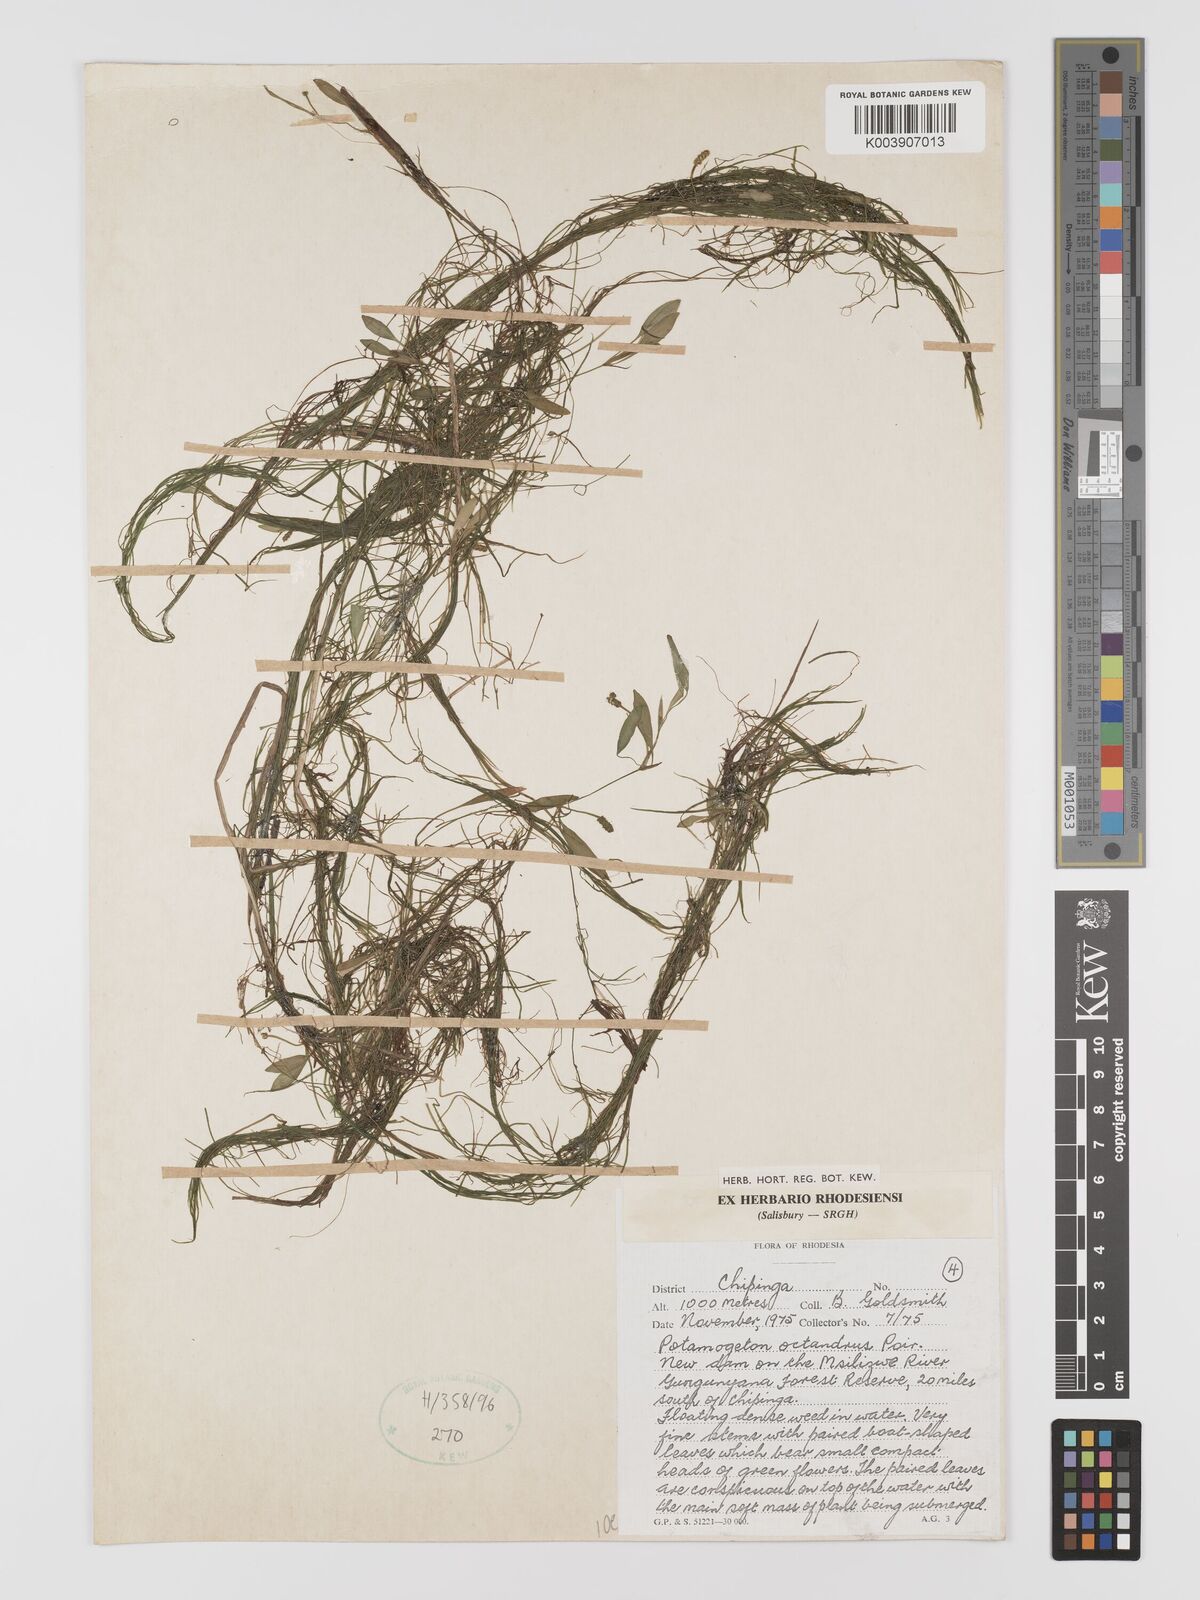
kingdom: Plantae
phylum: Tracheophyta
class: Liliopsida
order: Alismatales
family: Potamogetonaceae
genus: Potamogeton
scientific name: Potamogeton octandrus
